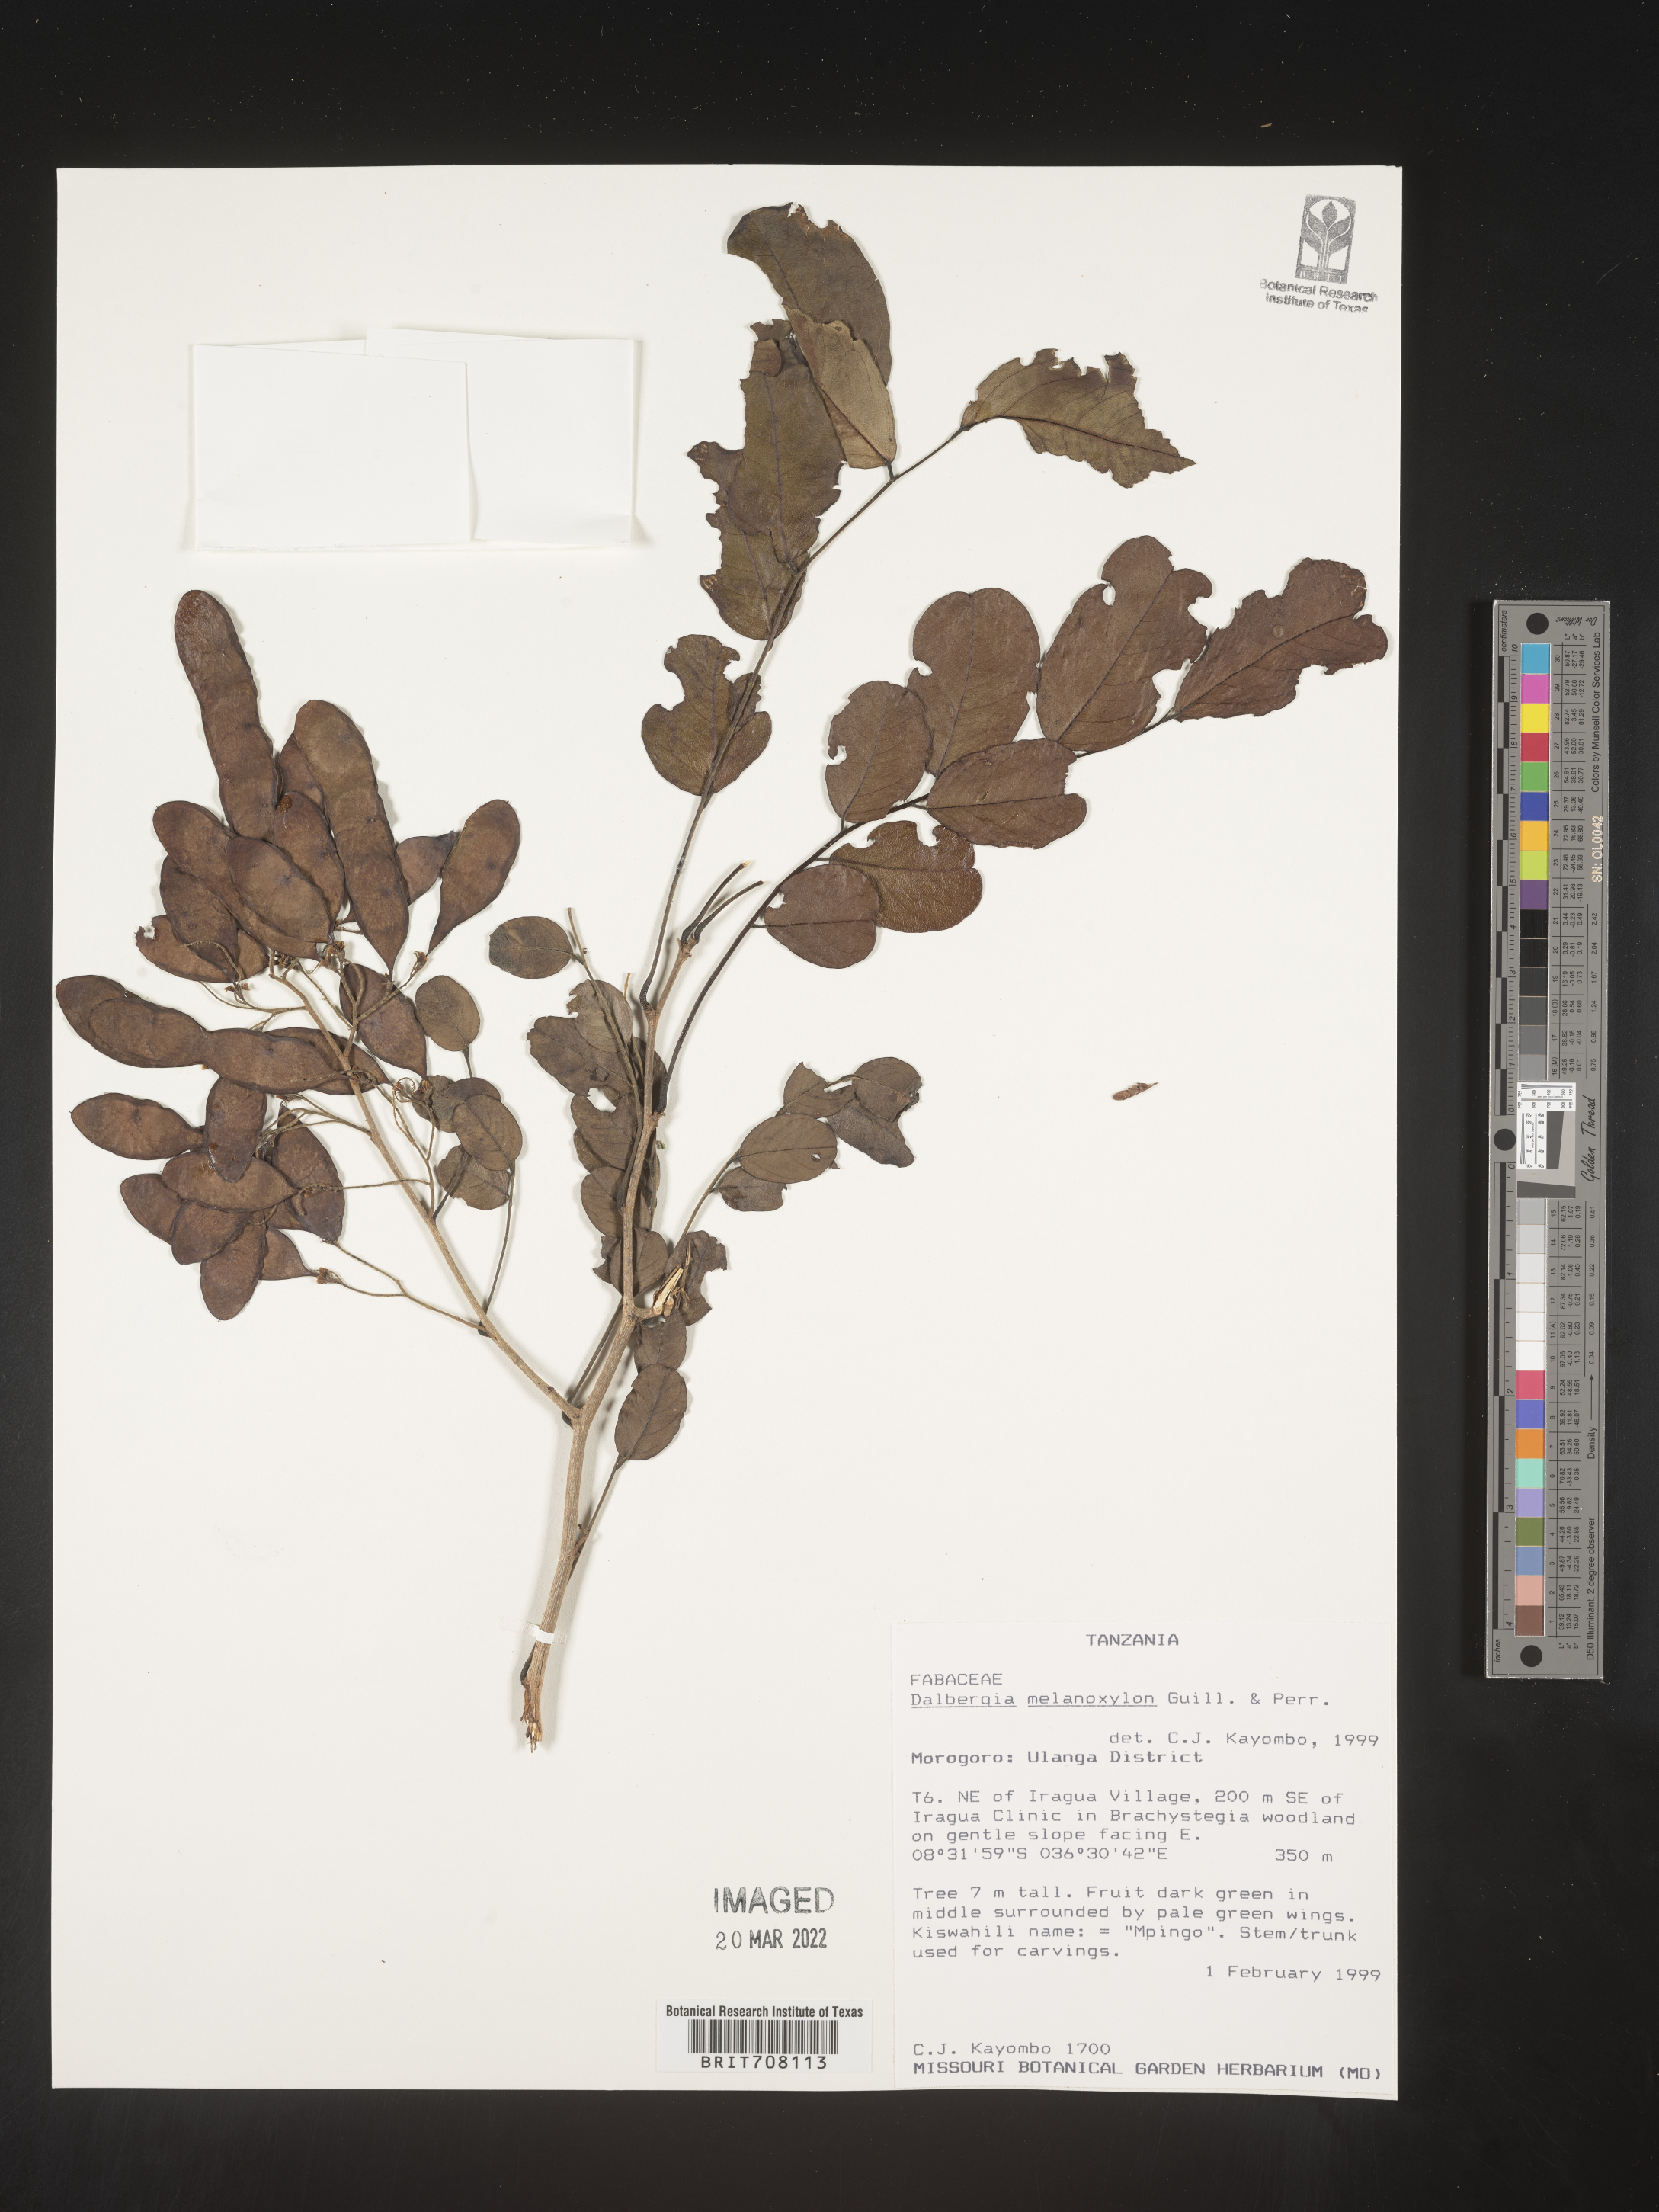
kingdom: Plantae
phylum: Tracheophyta
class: Magnoliopsida
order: Fabales
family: Fabaceae
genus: Dalbergia
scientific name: Dalbergia
